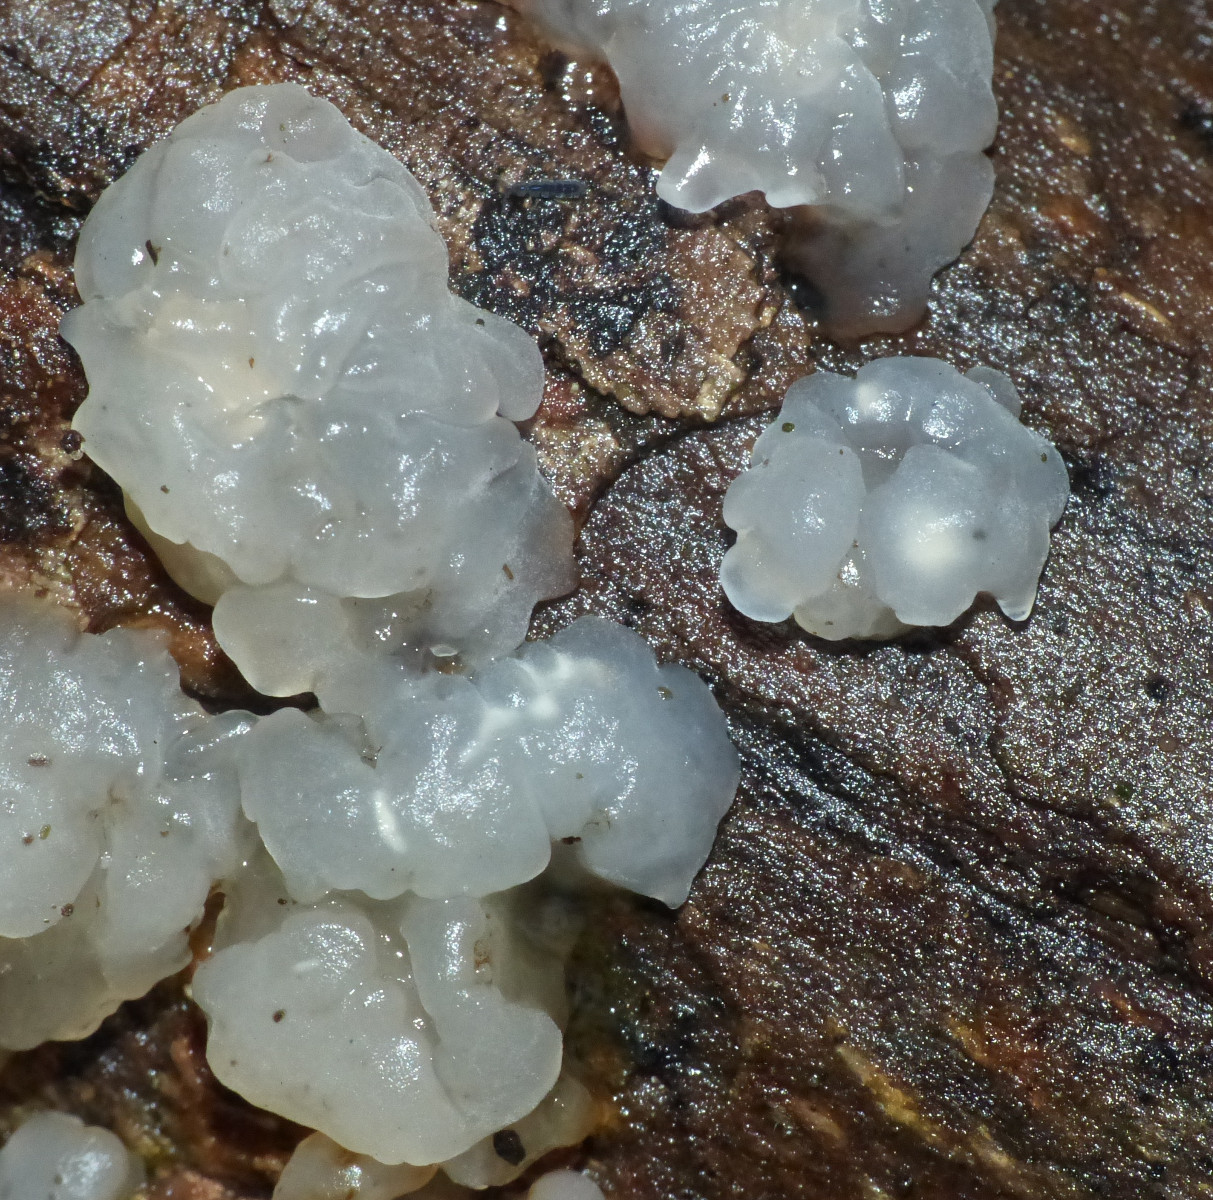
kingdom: Fungi
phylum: Basidiomycota
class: Agaricomycetes
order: Auriculariales
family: Hyaloriaceae
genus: Myxarium
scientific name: Myxarium nucleatum
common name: klar bævretop
